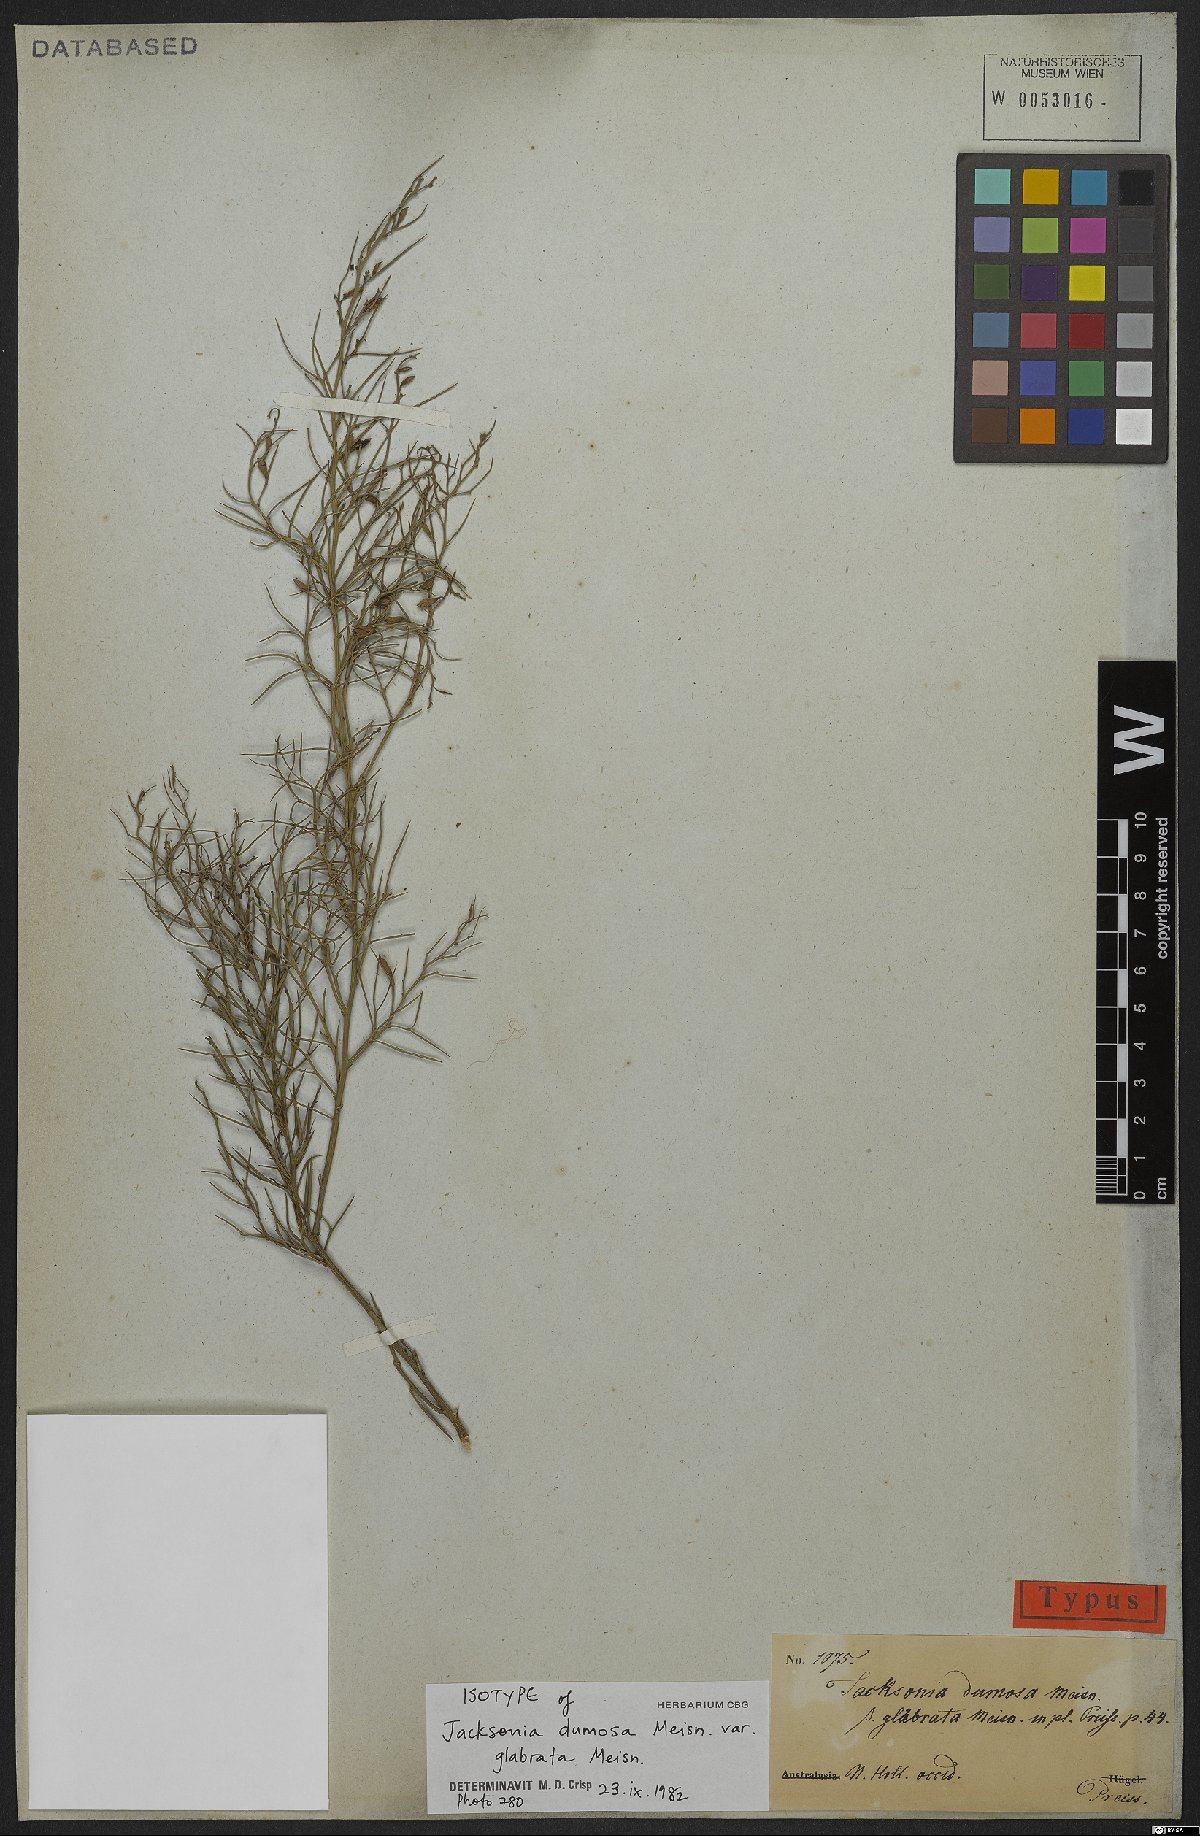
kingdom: Plantae
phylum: Tracheophyta
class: Magnoliopsida
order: Fabales
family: Fabaceae
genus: Jacksonia
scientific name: Jacksonia furcellata
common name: Grey stinkwood
